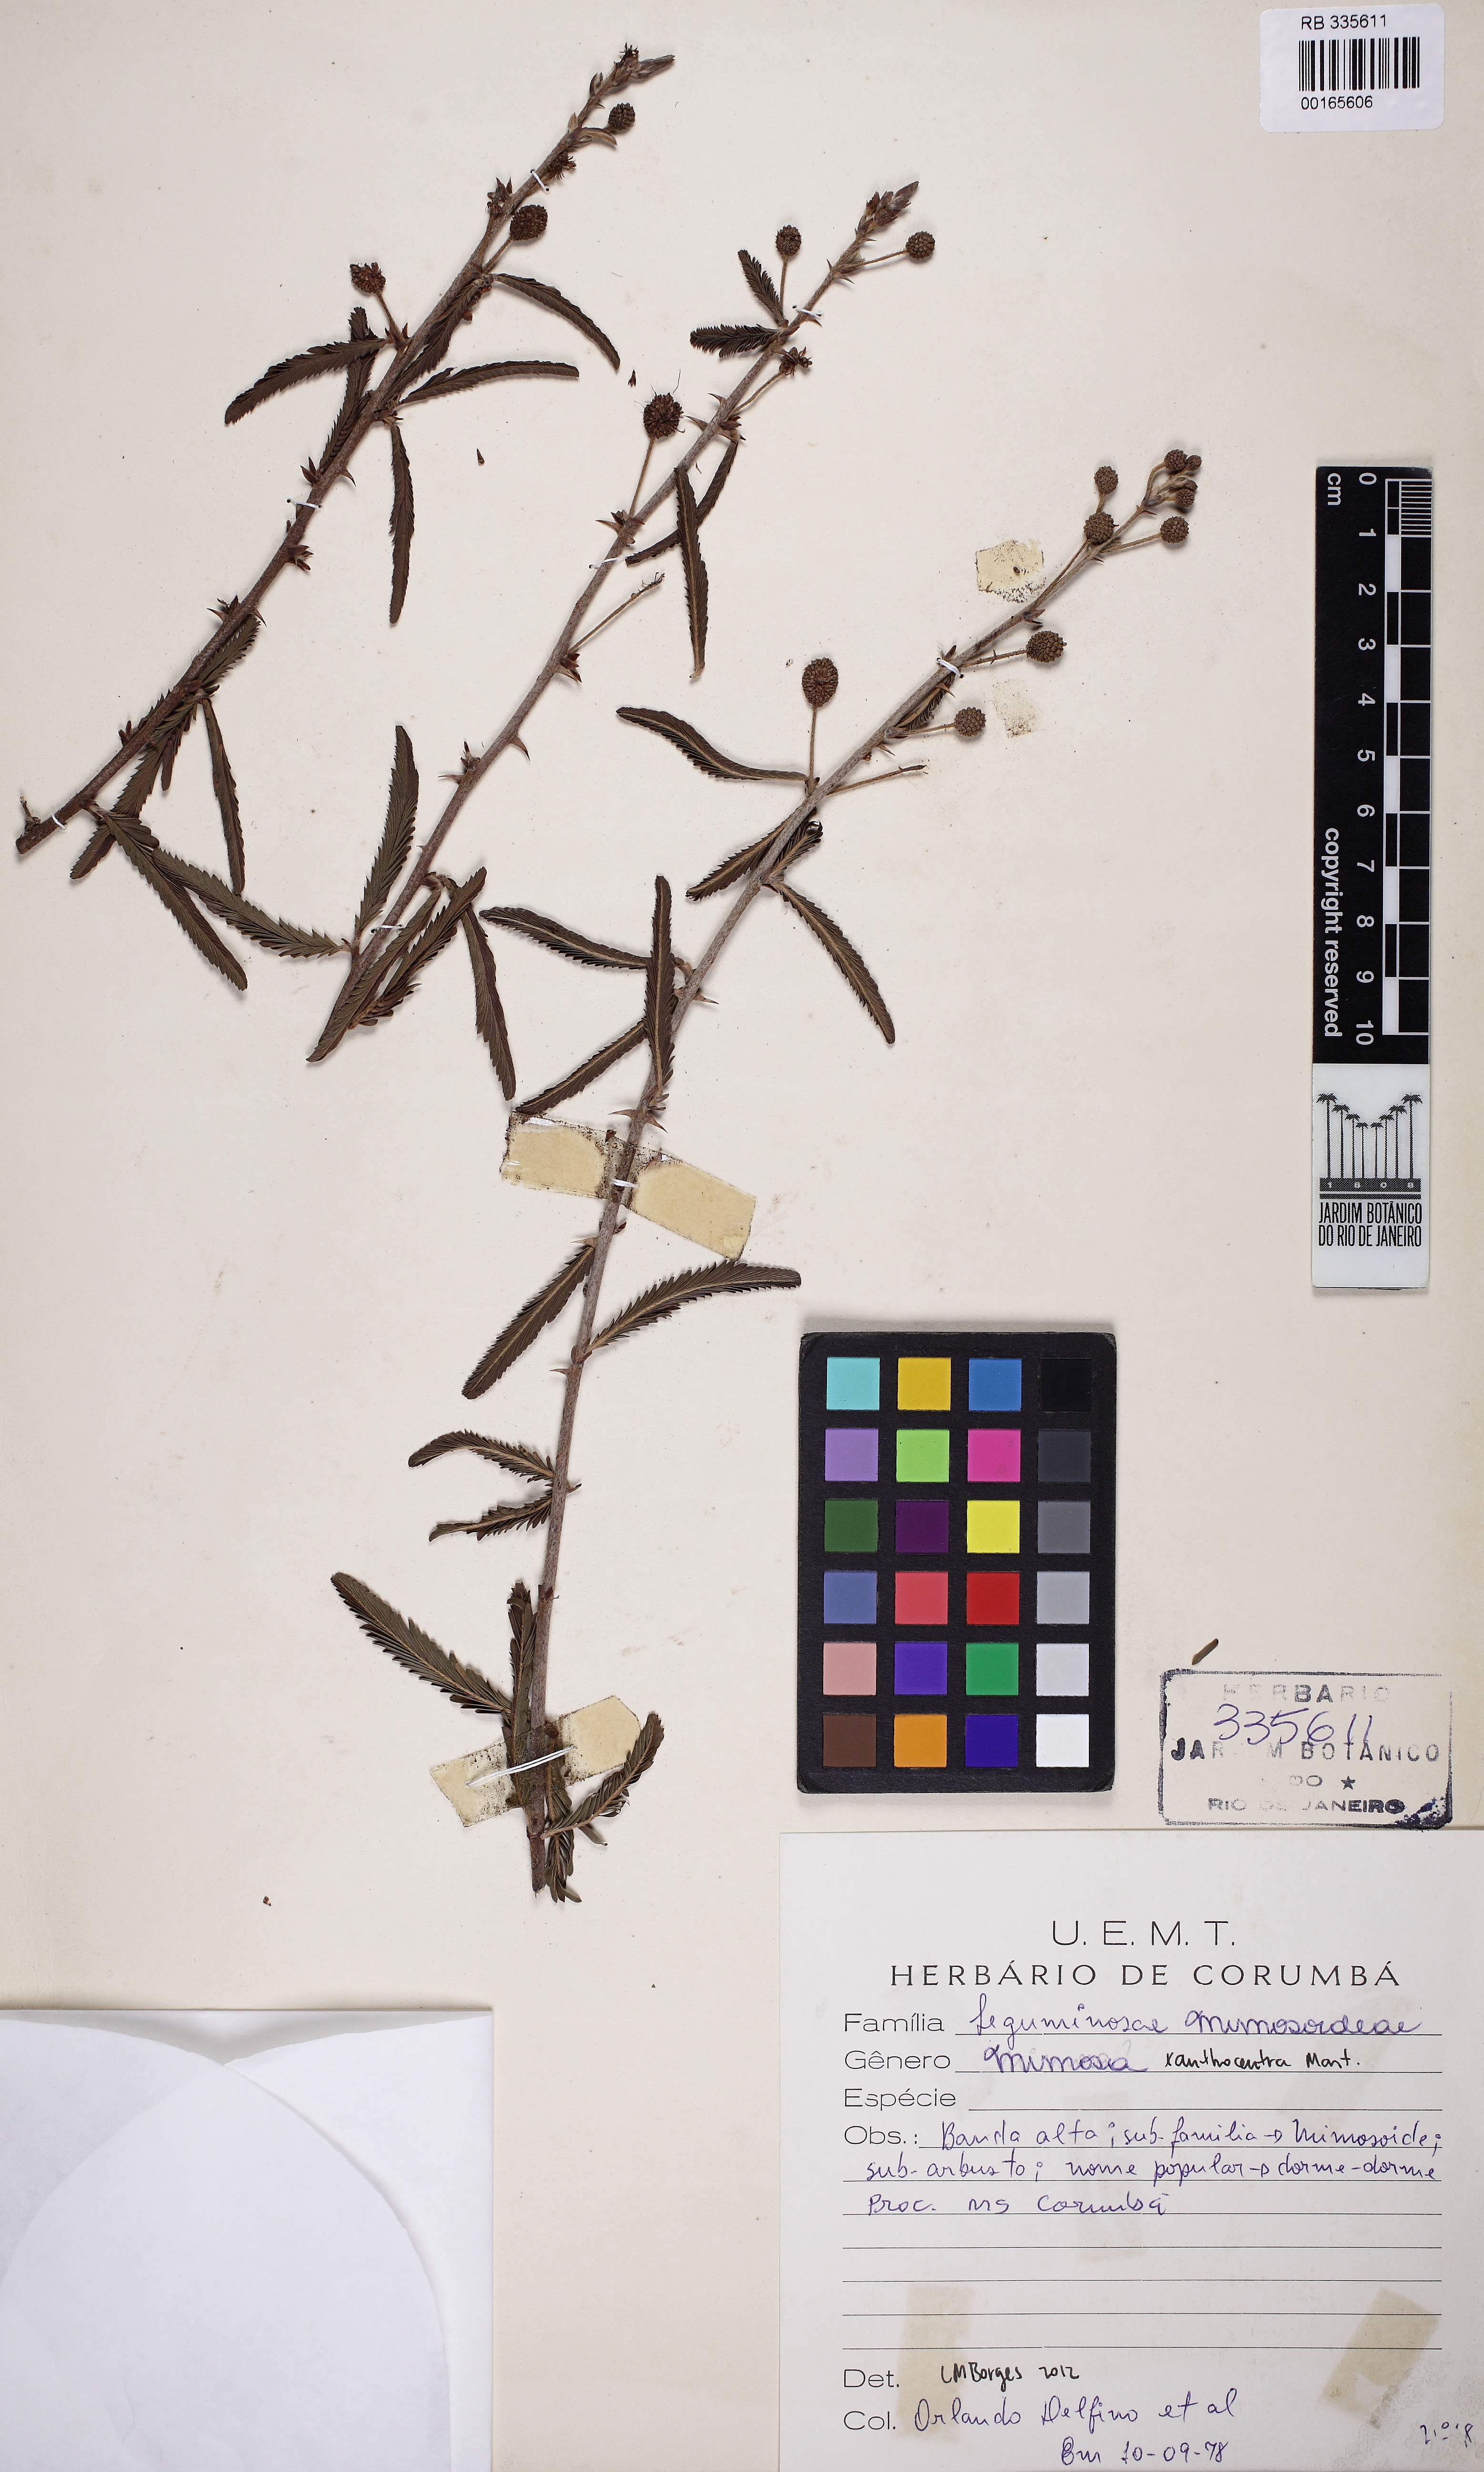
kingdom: Plantae
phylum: Tracheophyta
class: Magnoliopsida
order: Fabales
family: Fabaceae
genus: Mimosa
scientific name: Mimosa xanthocentra
